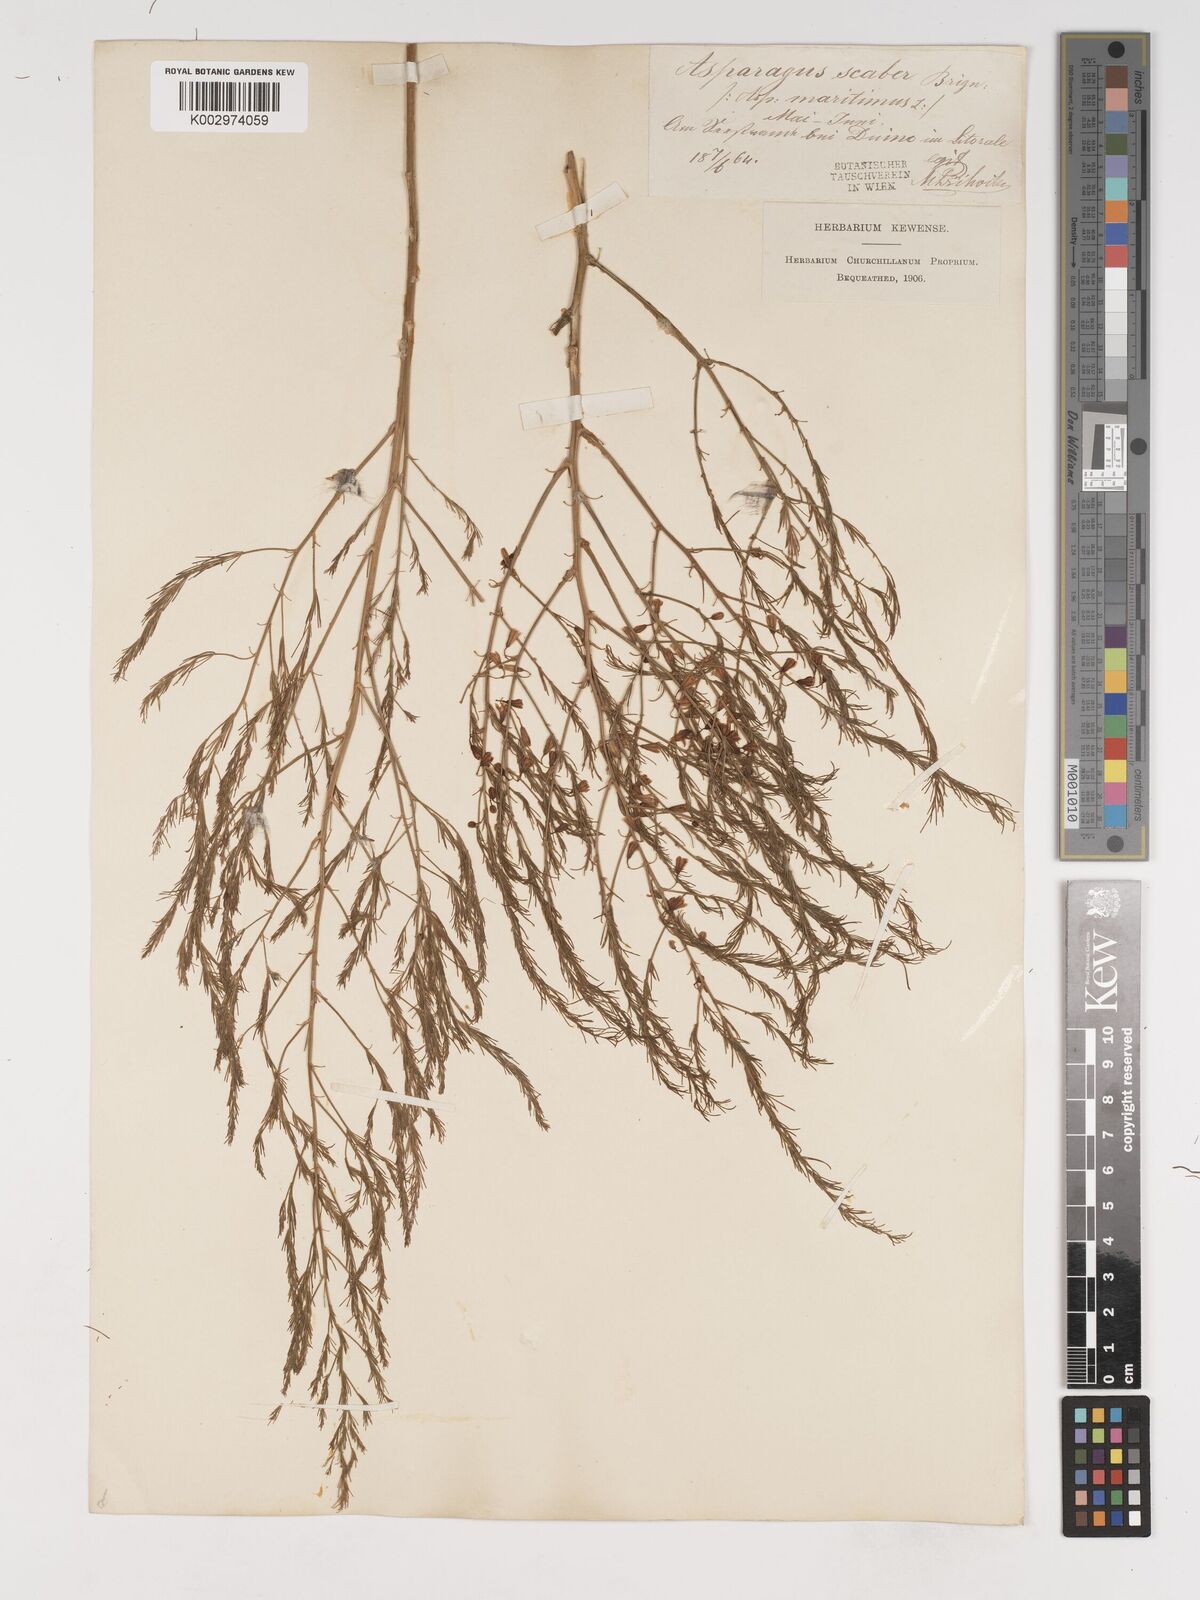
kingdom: Plantae
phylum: Tracheophyta
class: Liliopsida
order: Asparagales
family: Asparagaceae
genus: Asparagus
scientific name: Asparagus maritimus
